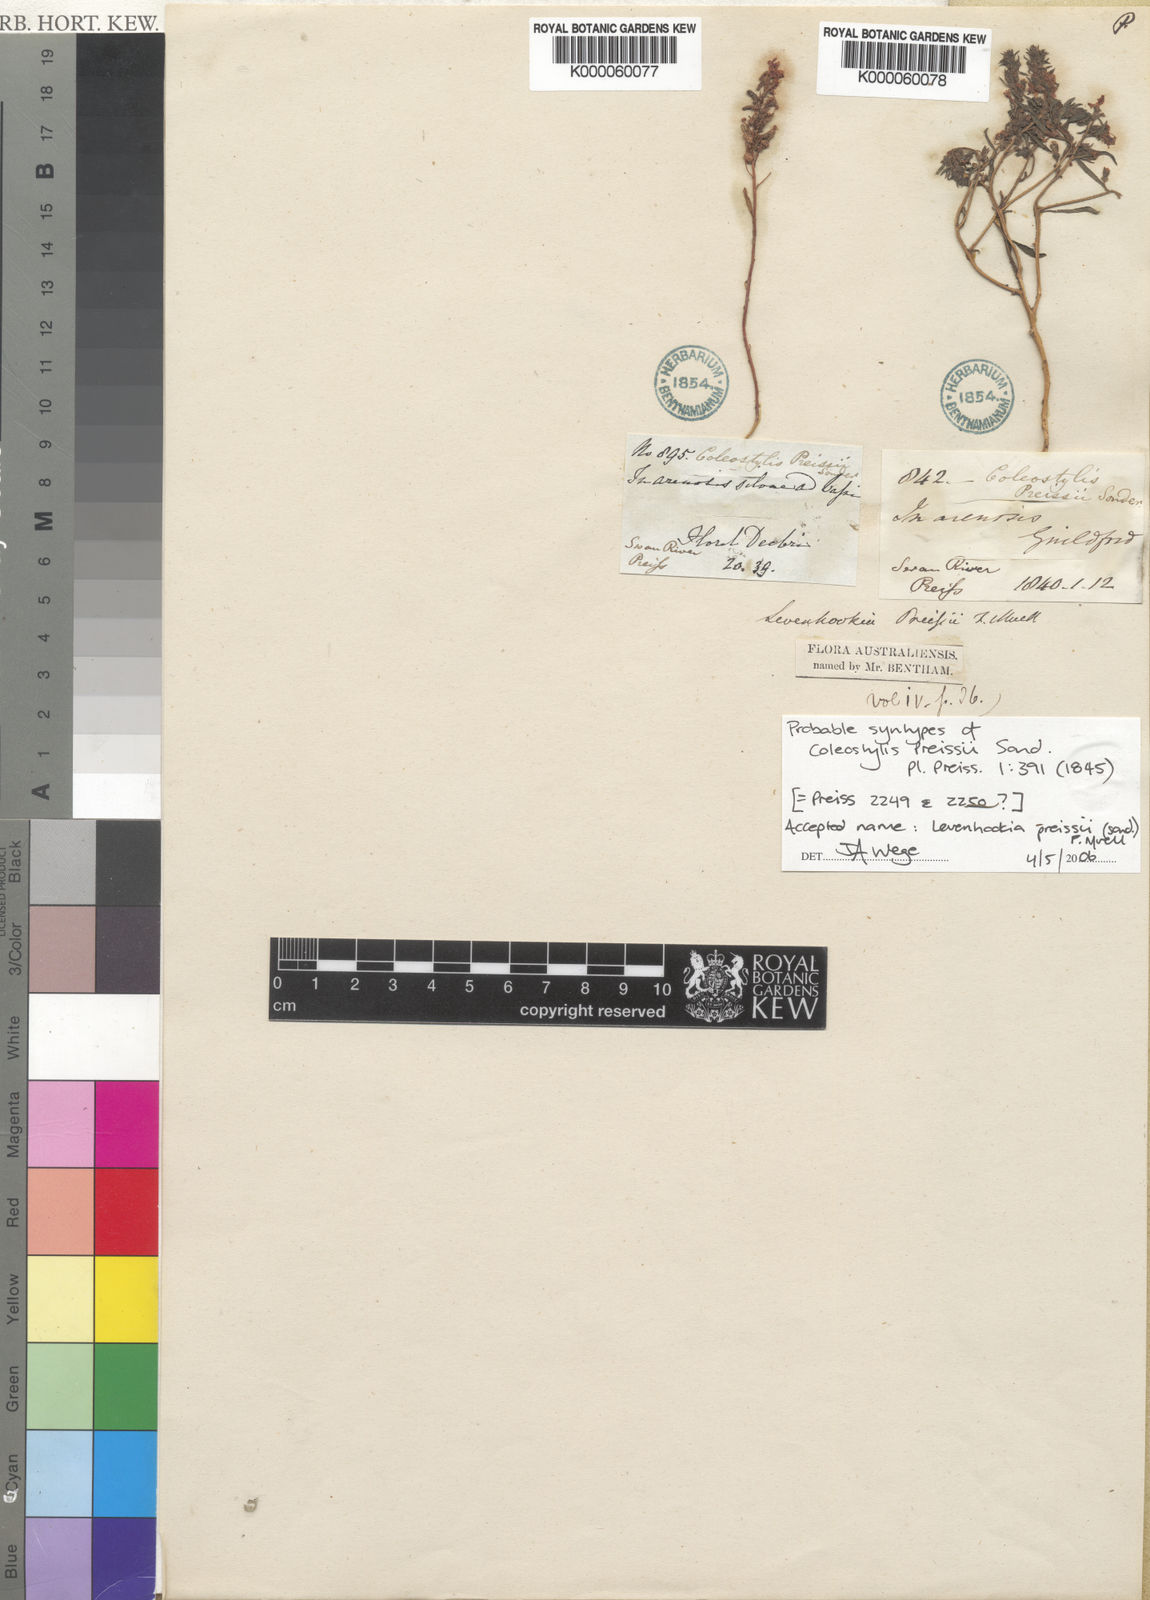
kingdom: Plantae
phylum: Tracheophyta
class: Magnoliopsida
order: Asterales
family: Stylidiaceae
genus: Levenhookia
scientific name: Levenhookia preissii
